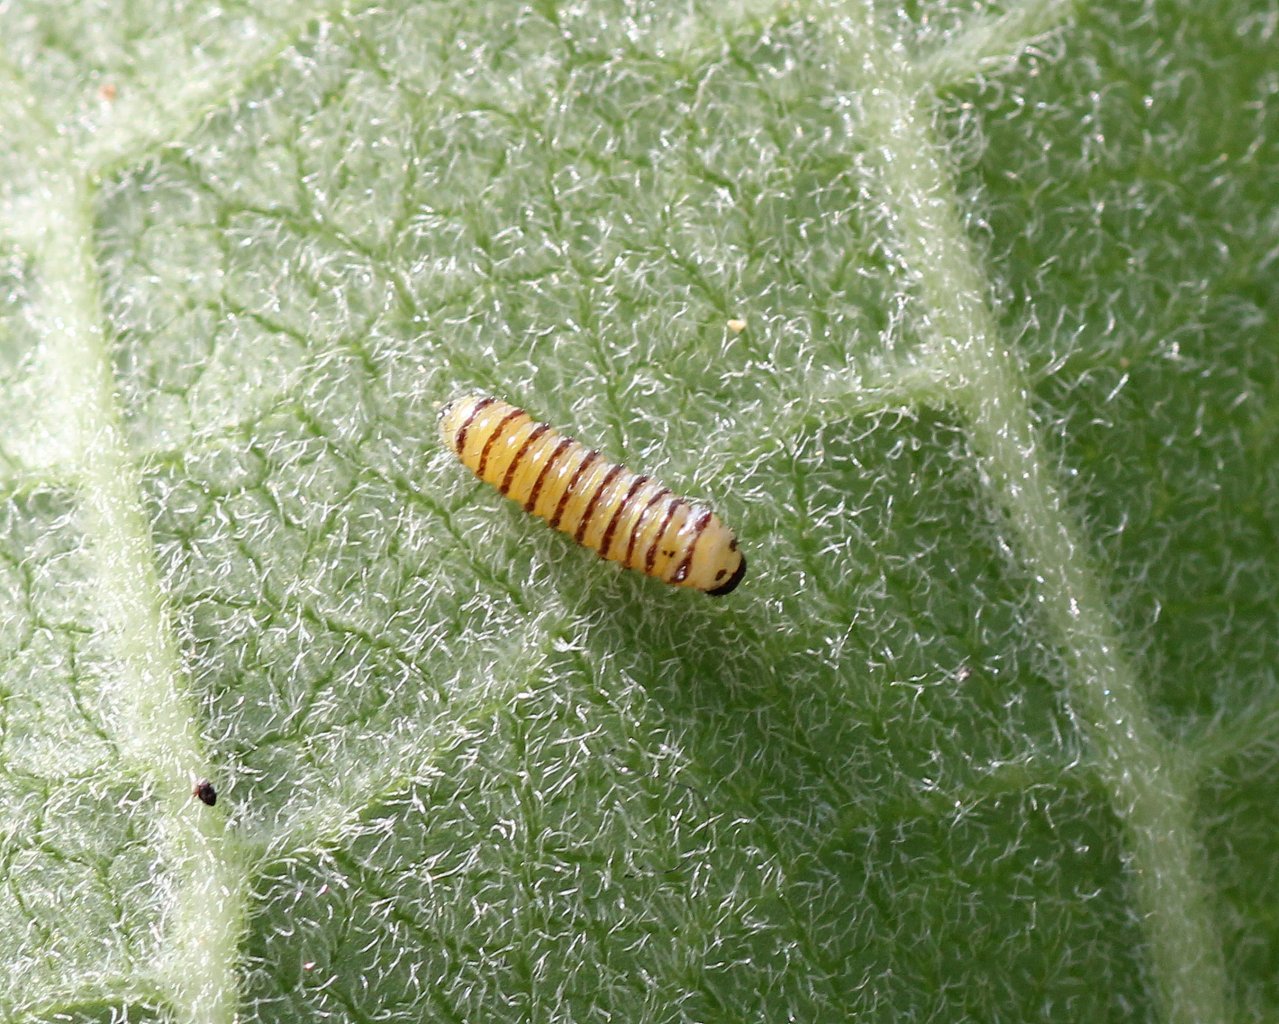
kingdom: Animalia
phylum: Arthropoda
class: Insecta
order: Lepidoptera
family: Nymphalidae
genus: Danaus
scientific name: Danaus plexippus
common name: Monarch
